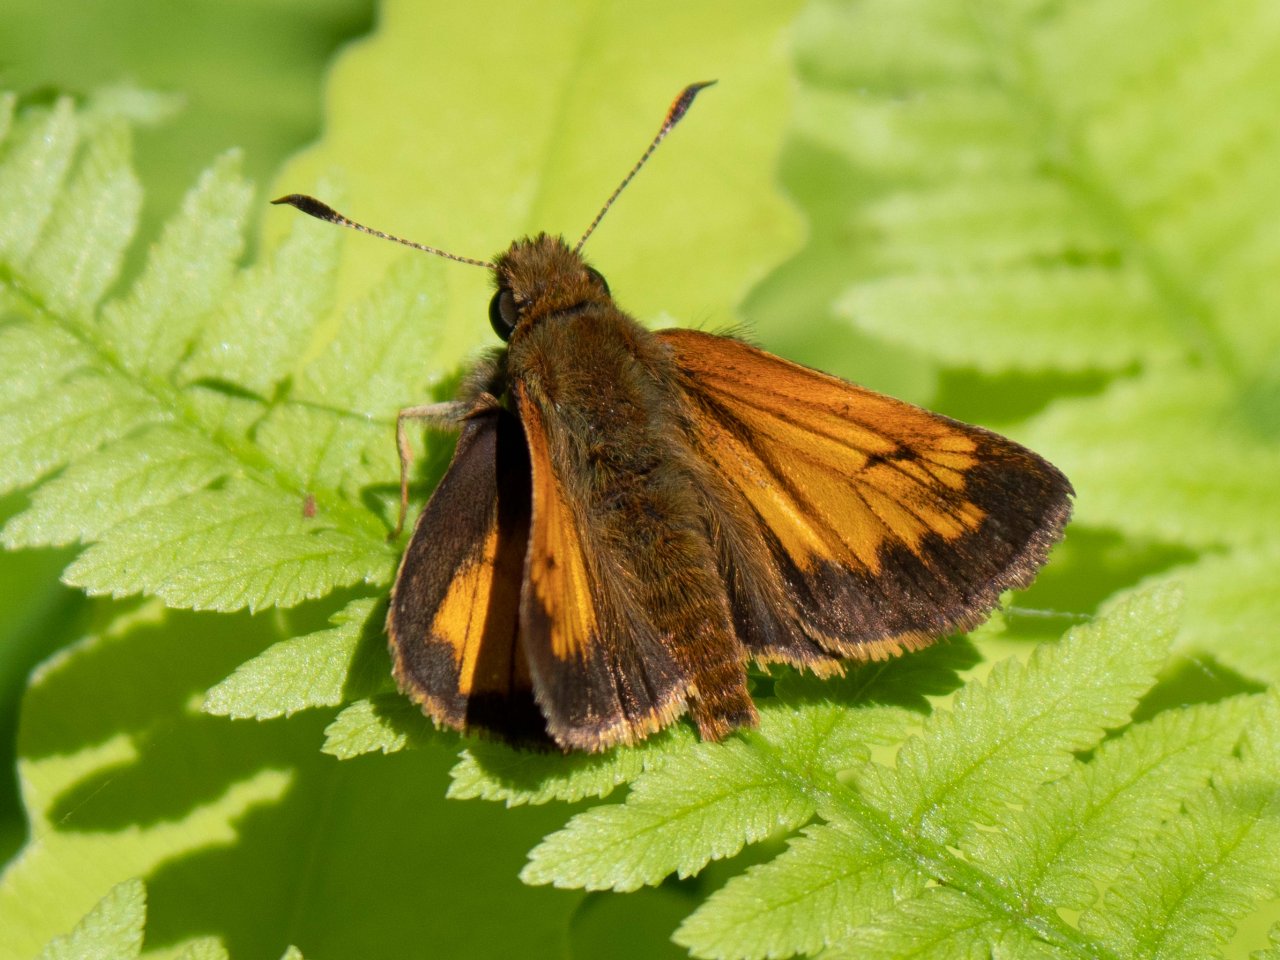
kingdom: Animalia
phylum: Arthropoda
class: Insecta
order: Lepidoptera
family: Hesperiidae
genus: Lon
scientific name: Lon hobomok
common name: Hobomok Skipper
